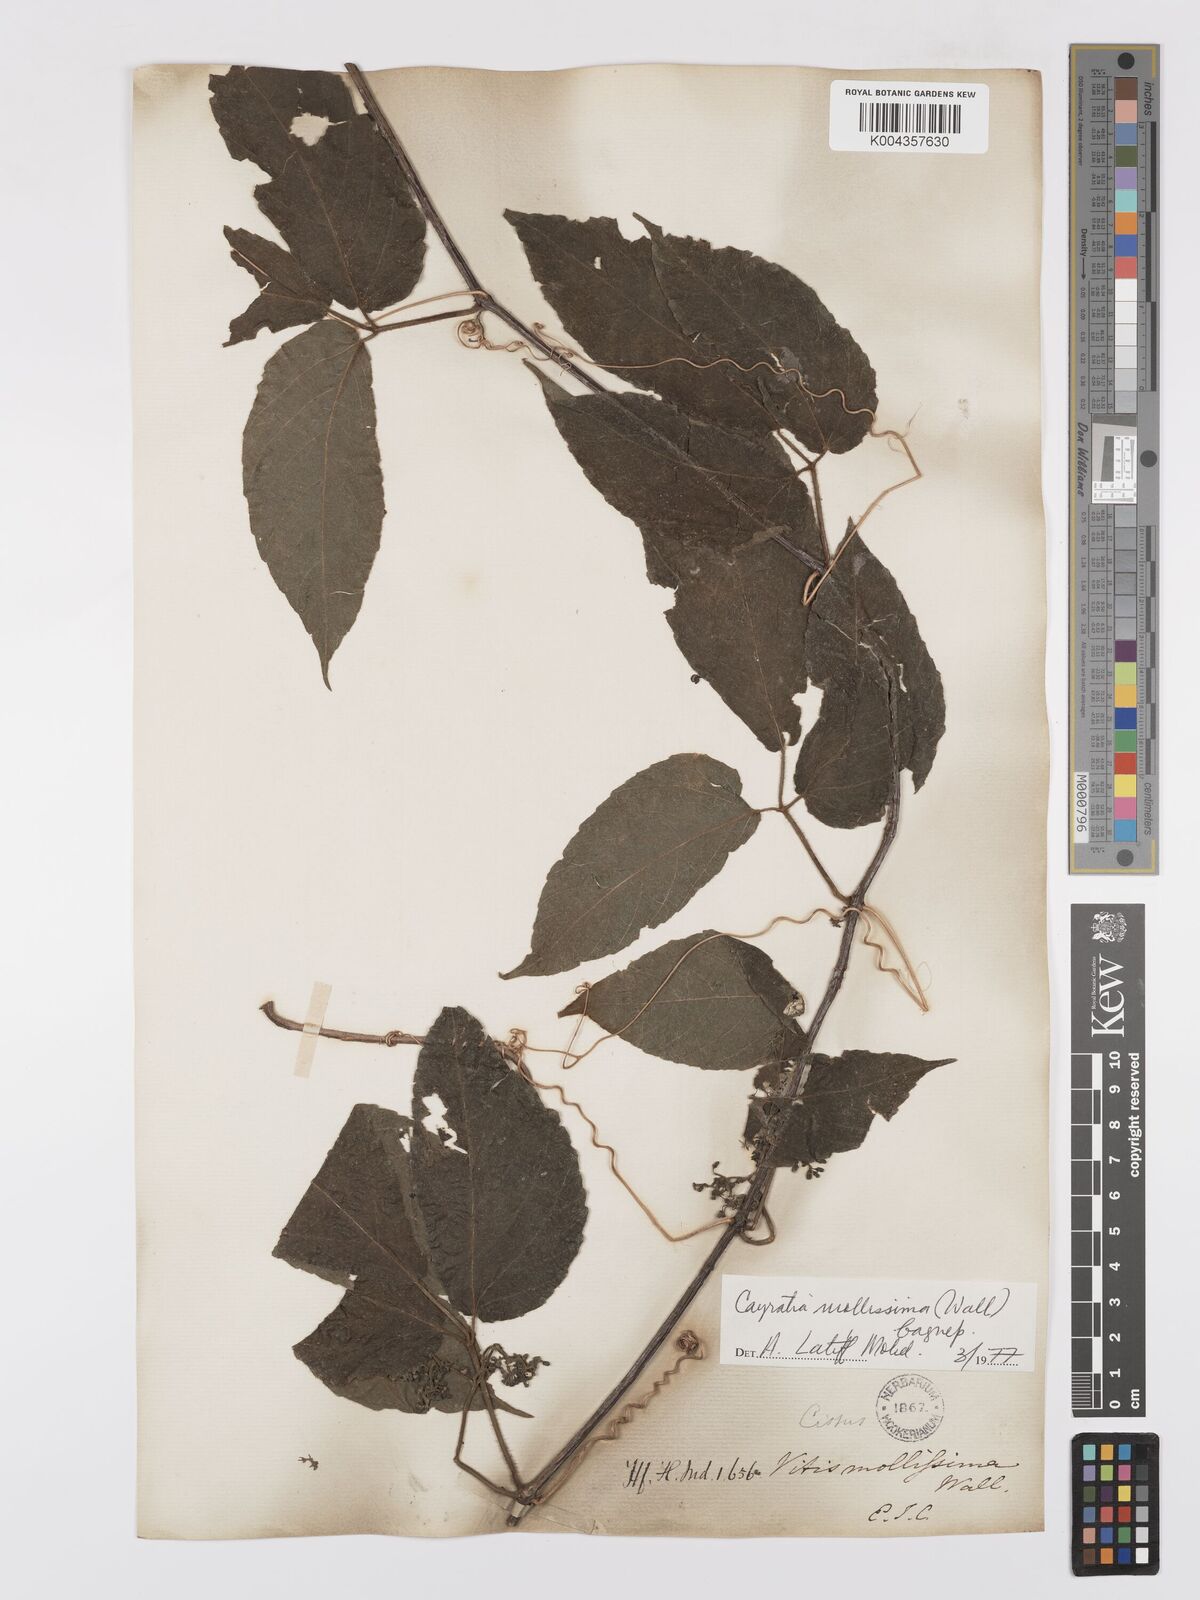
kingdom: Plantae
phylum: Tracheophyta
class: Magnoliopsida
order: Vitales
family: Vitaceae
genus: Cayratia
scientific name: Cayratia mollissima
